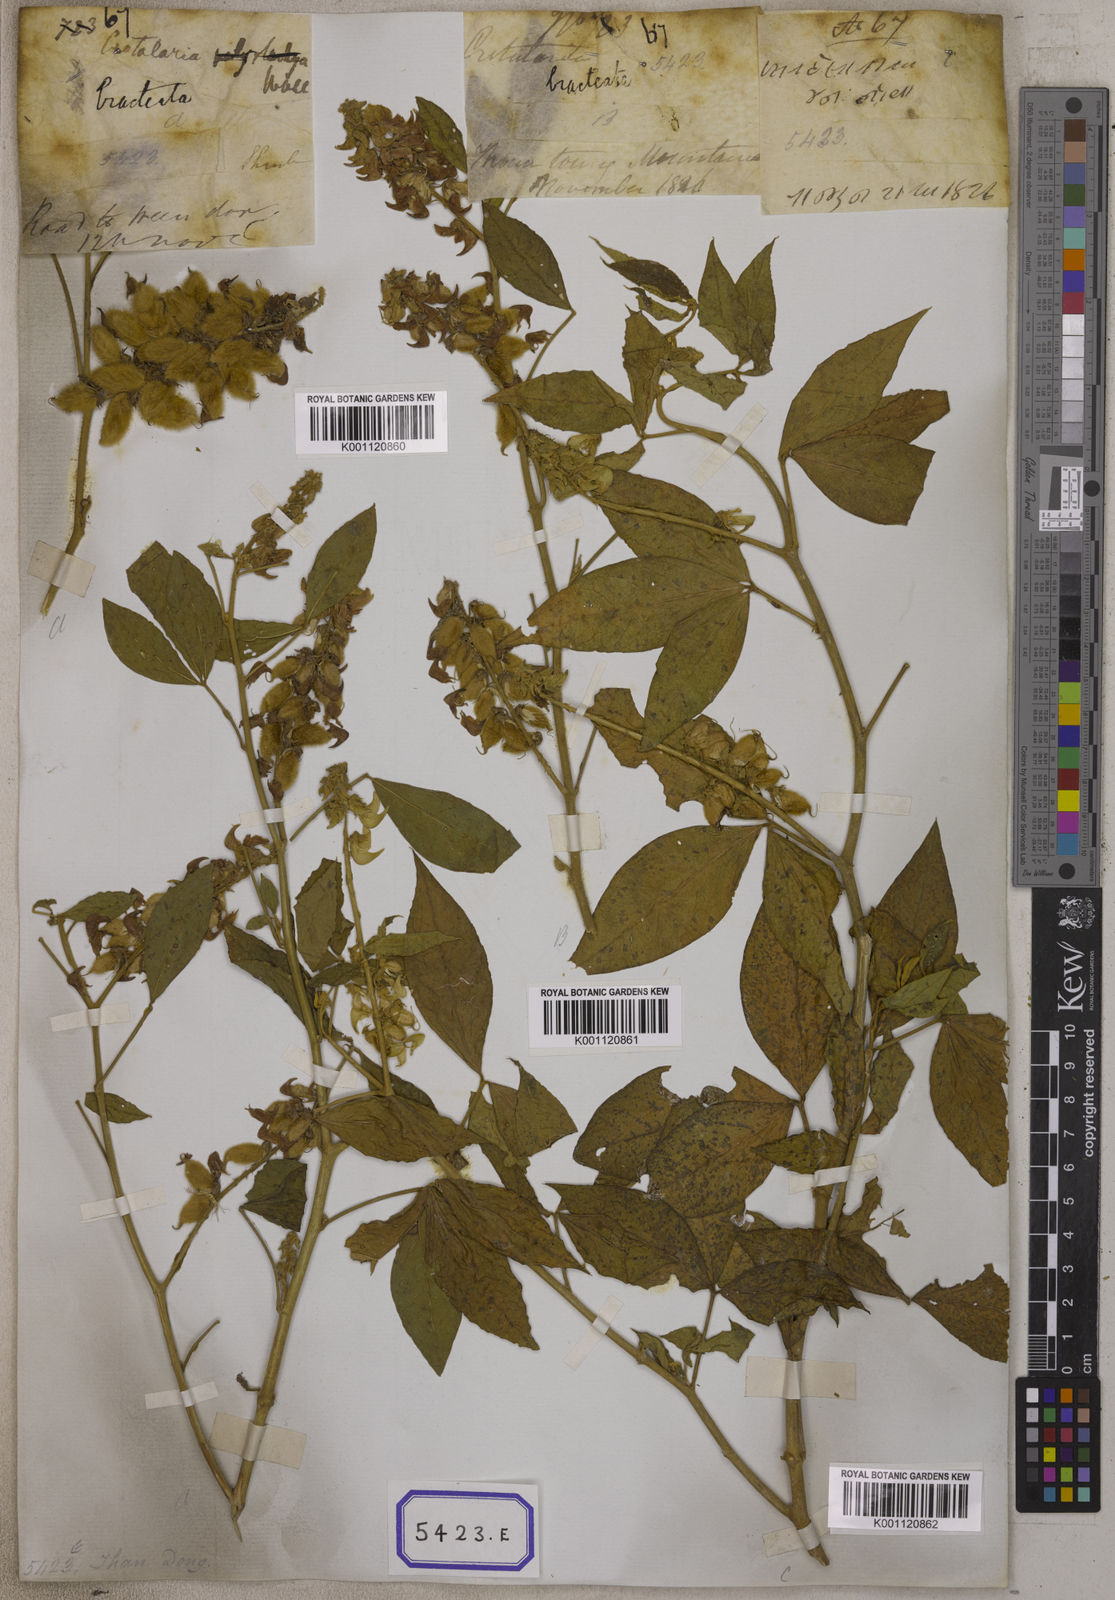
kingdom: Plantae
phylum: Tracheophyta
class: Magnoliopsida
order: Fabales
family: Fabaceae
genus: Crotalaria
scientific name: Crotalaria
